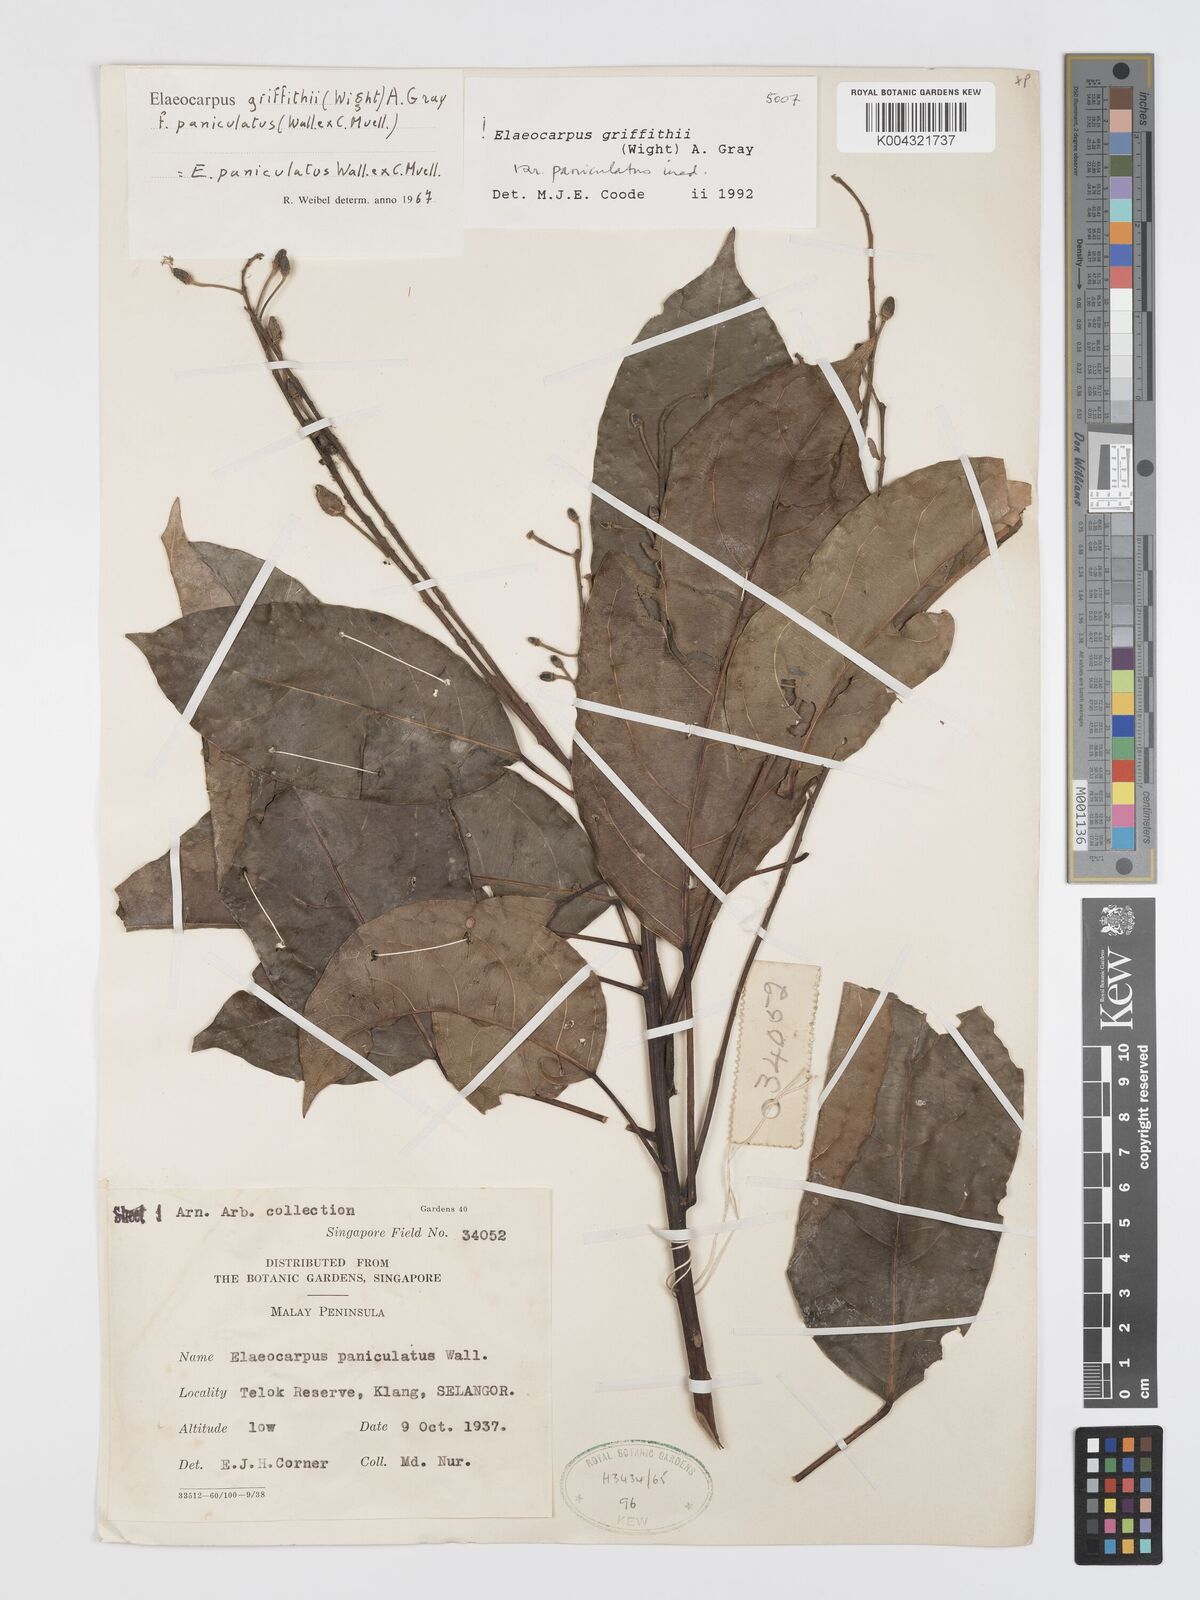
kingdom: Plantae
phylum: Tracheophyta
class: Magnoliopsida
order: Oxalidales
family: Elaeocarpaceae
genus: Elaeocarpus
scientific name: Elaeocarpus griffithii
